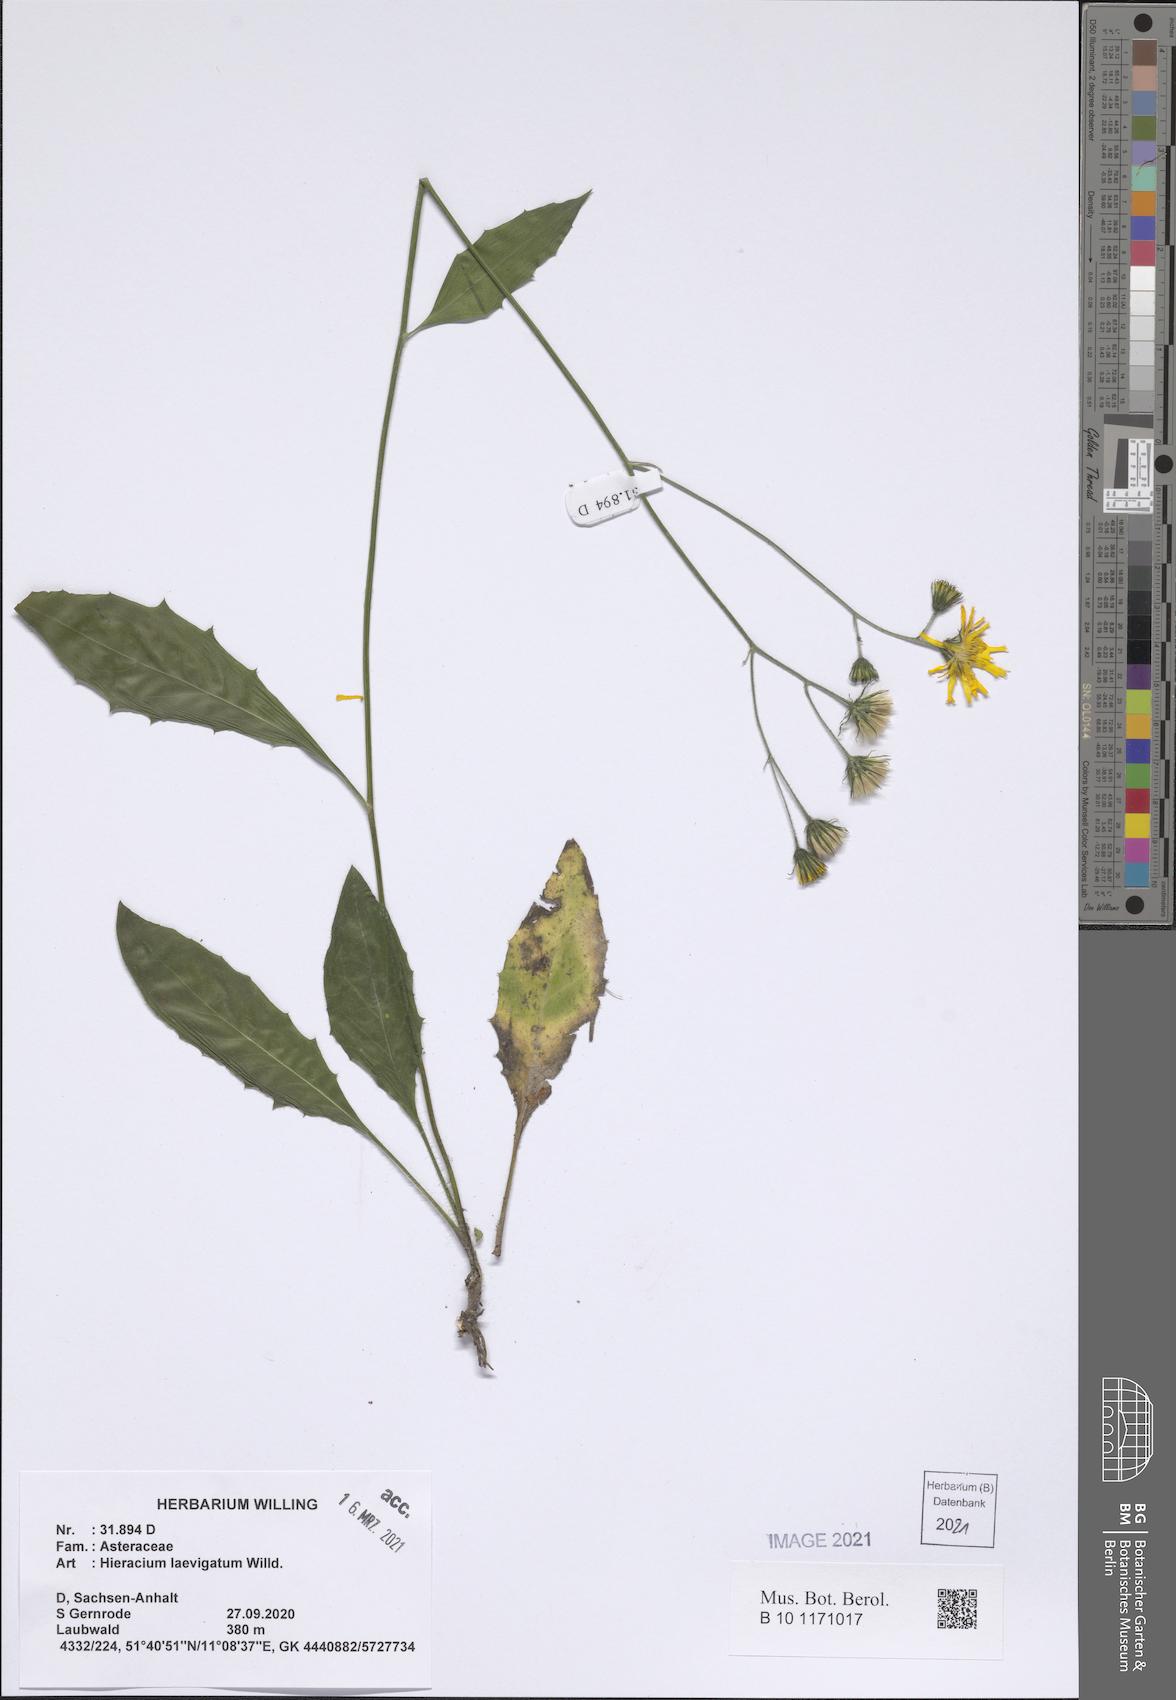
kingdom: Plantae
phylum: Tracheophyta
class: Magnoliopsida
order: Asterales
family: Asteraceae
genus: Hieracium
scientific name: Hieracium laevigatum
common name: Smooth hawkweed
